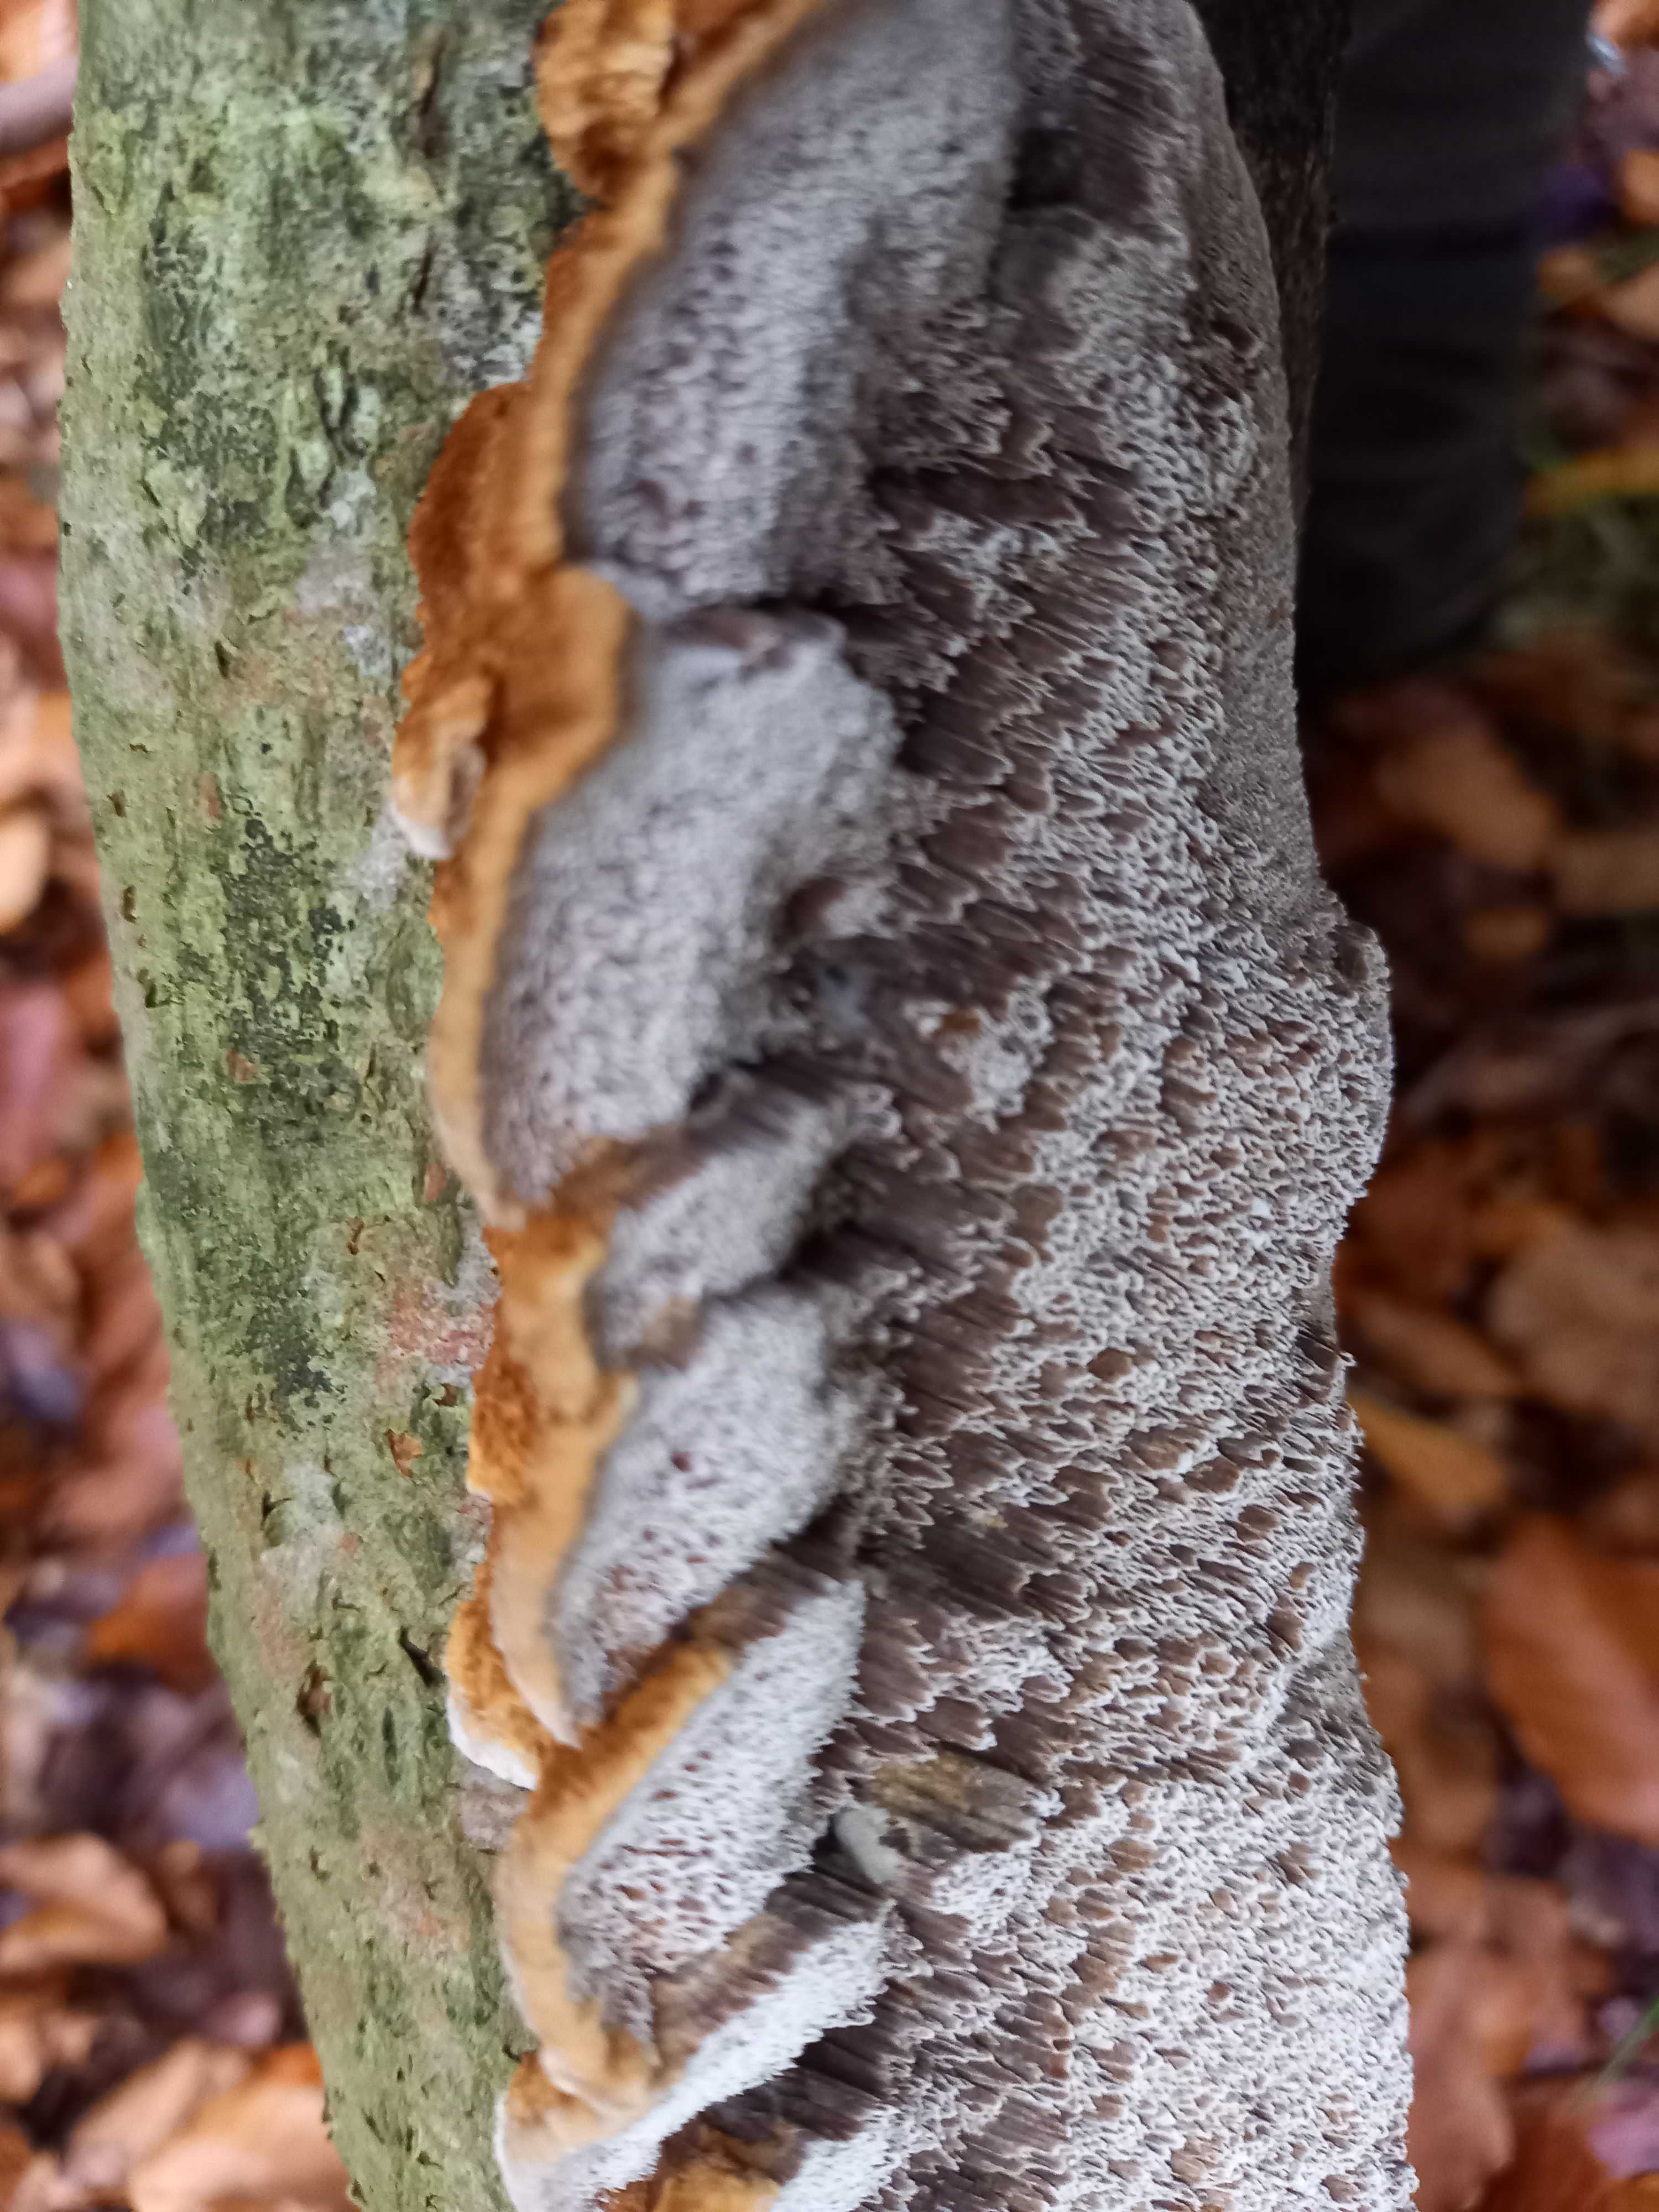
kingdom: Fungi
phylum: Basidiomycota
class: Agaricomycetes
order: Hymenochaetales
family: Hymenochaetaceae
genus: Mensularia
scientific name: Mensularia nodulosa
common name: bøge-spejlporesvamp
